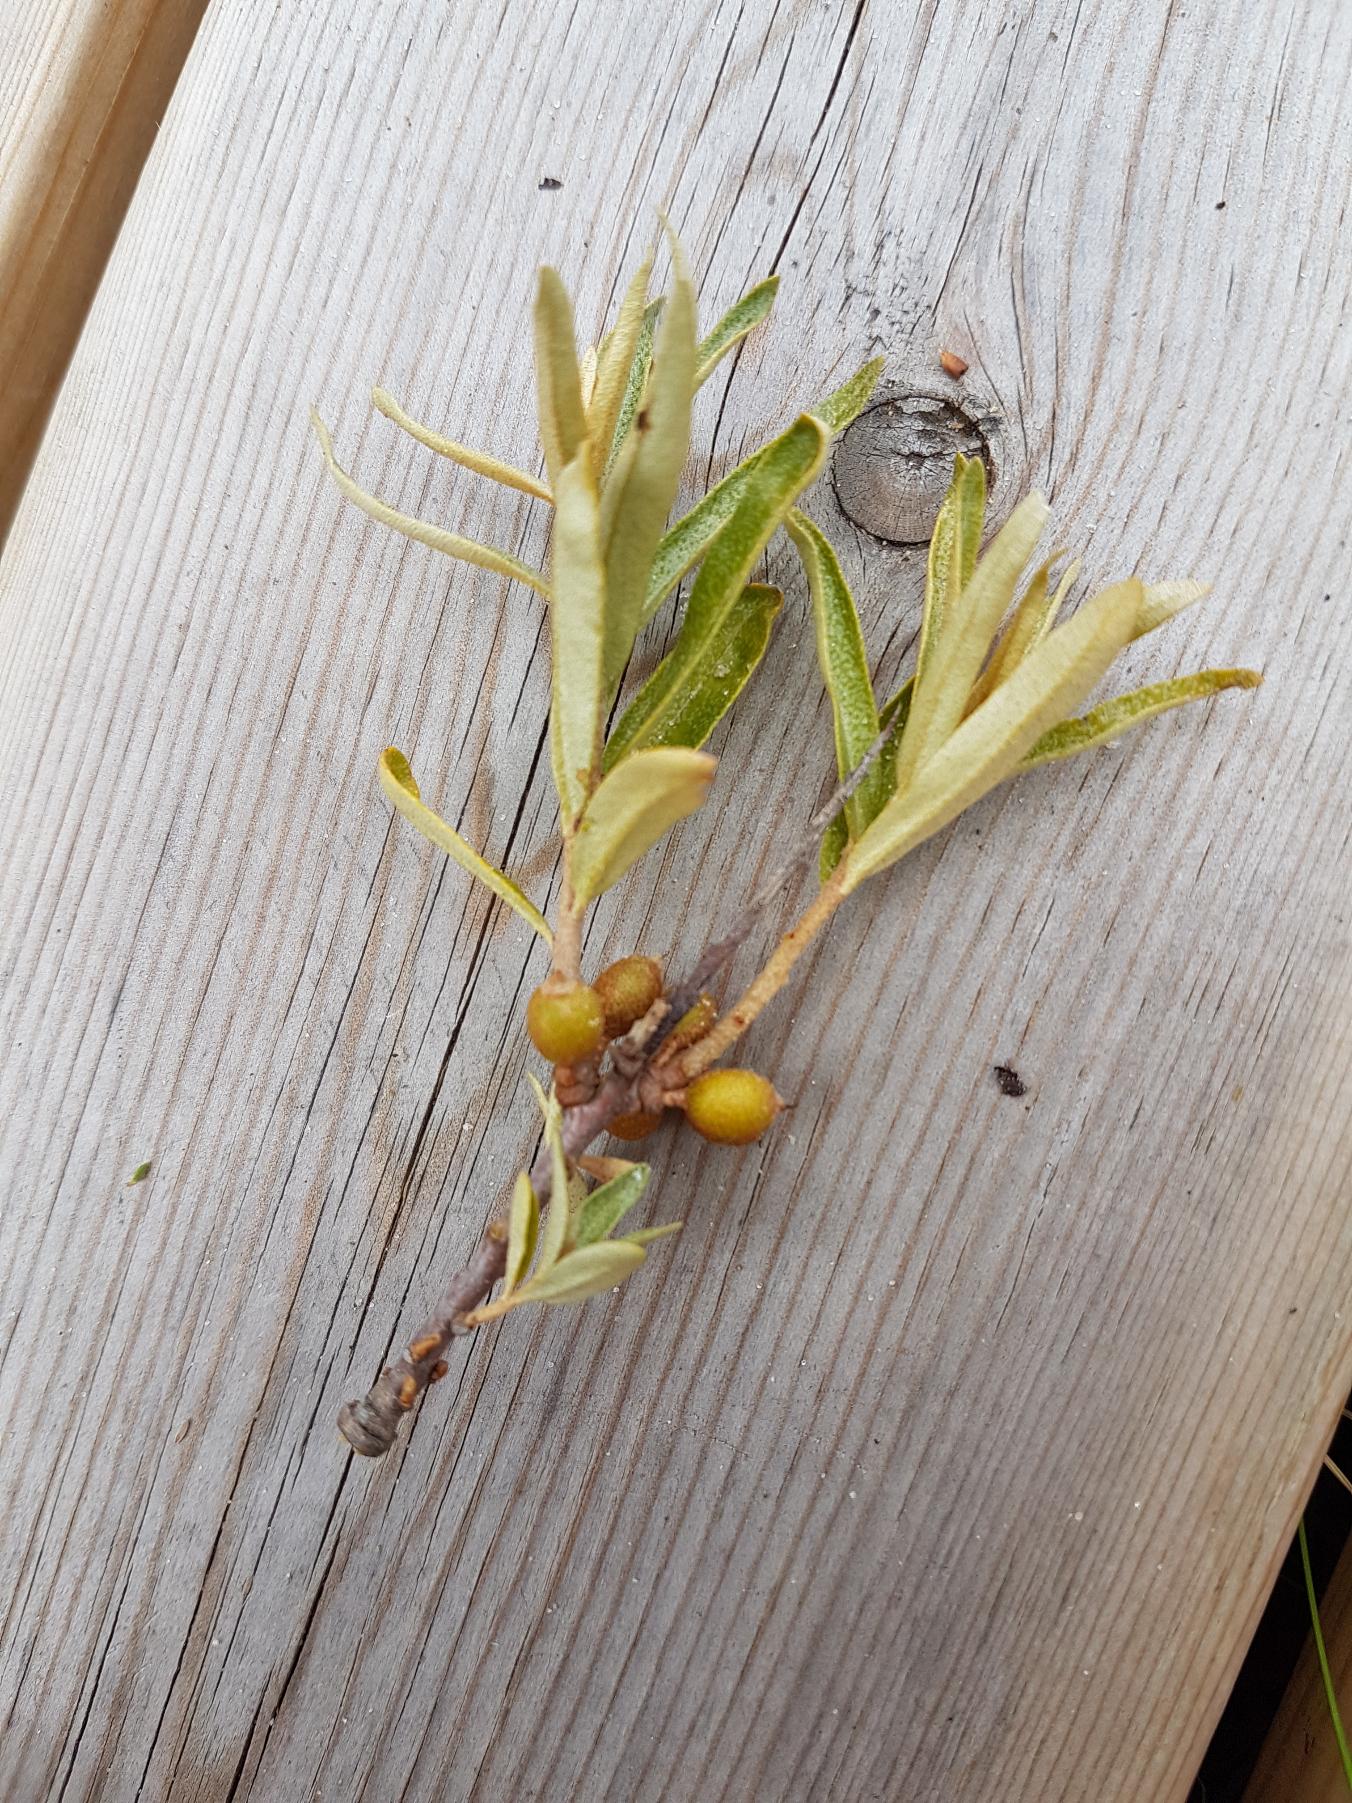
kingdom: Plantae
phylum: Tracheophyta
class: Magnoliopsida
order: Rosales
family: Elaeagnaceae
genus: Hippophae
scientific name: Hippophae rhamnoides
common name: Havtorn
